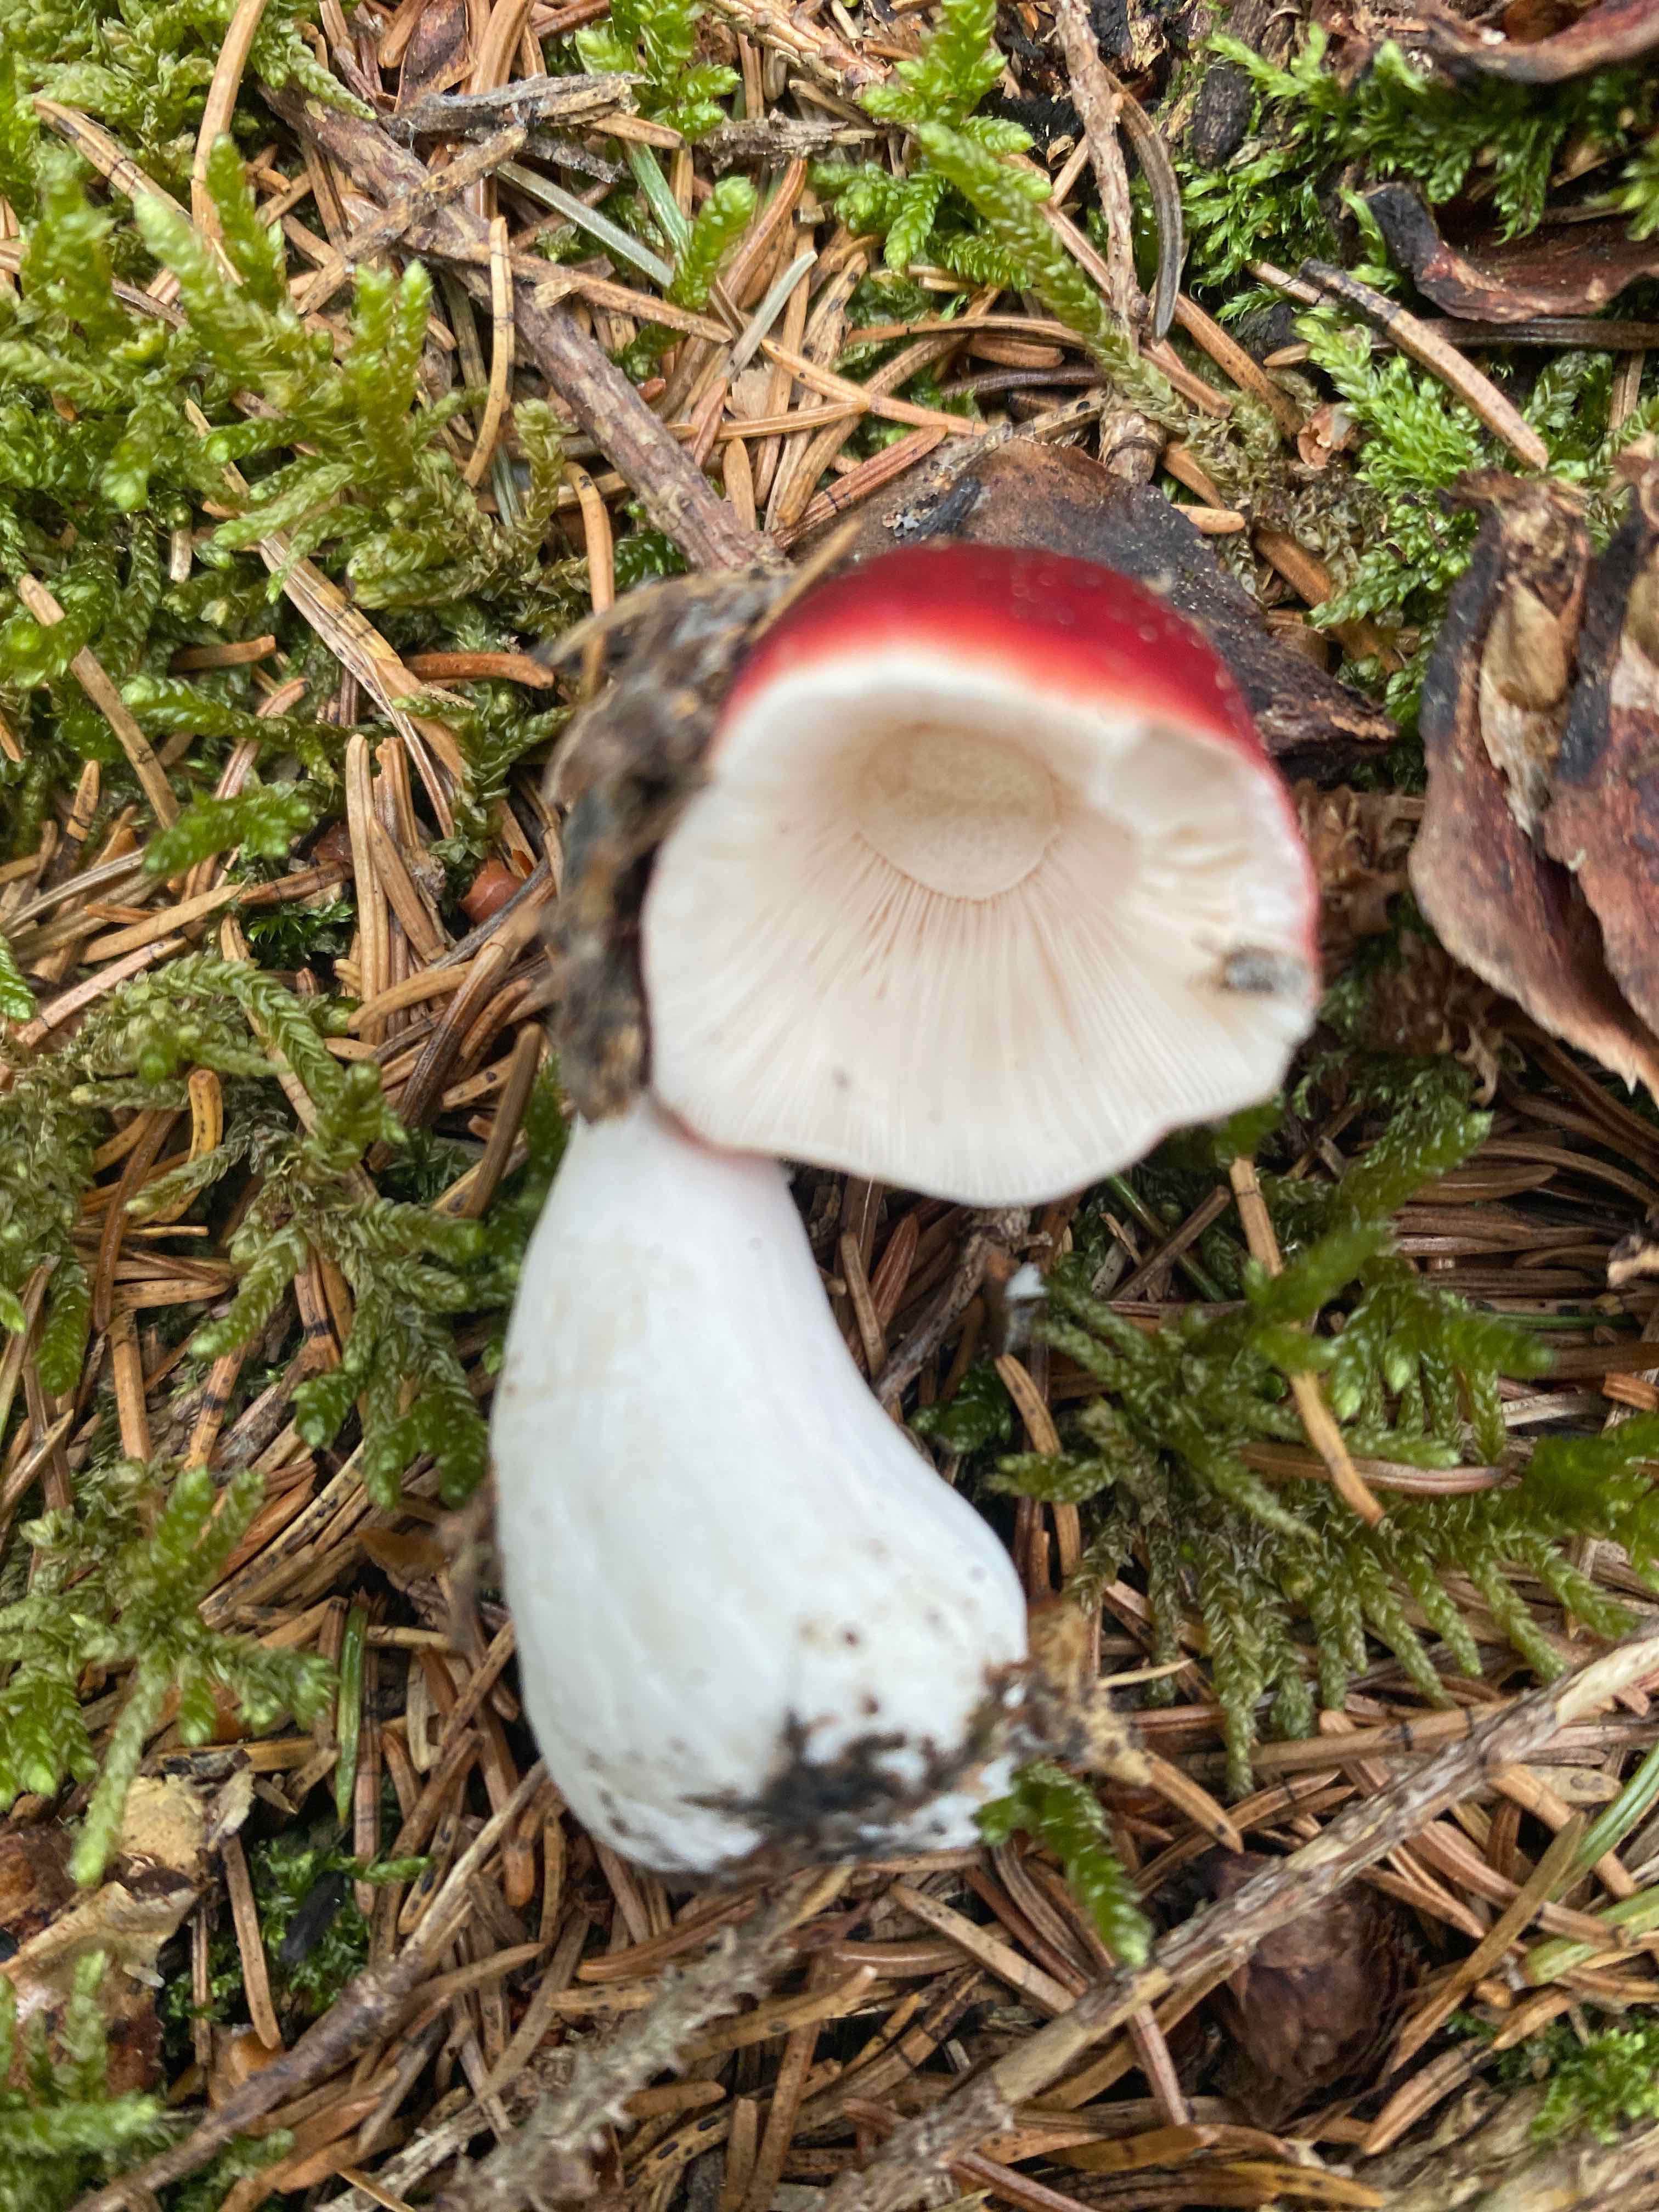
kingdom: Fungi
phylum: Basidiomycota
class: Agaricomycetes
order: Russulales
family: Russulaceae
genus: Russula
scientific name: Russula
